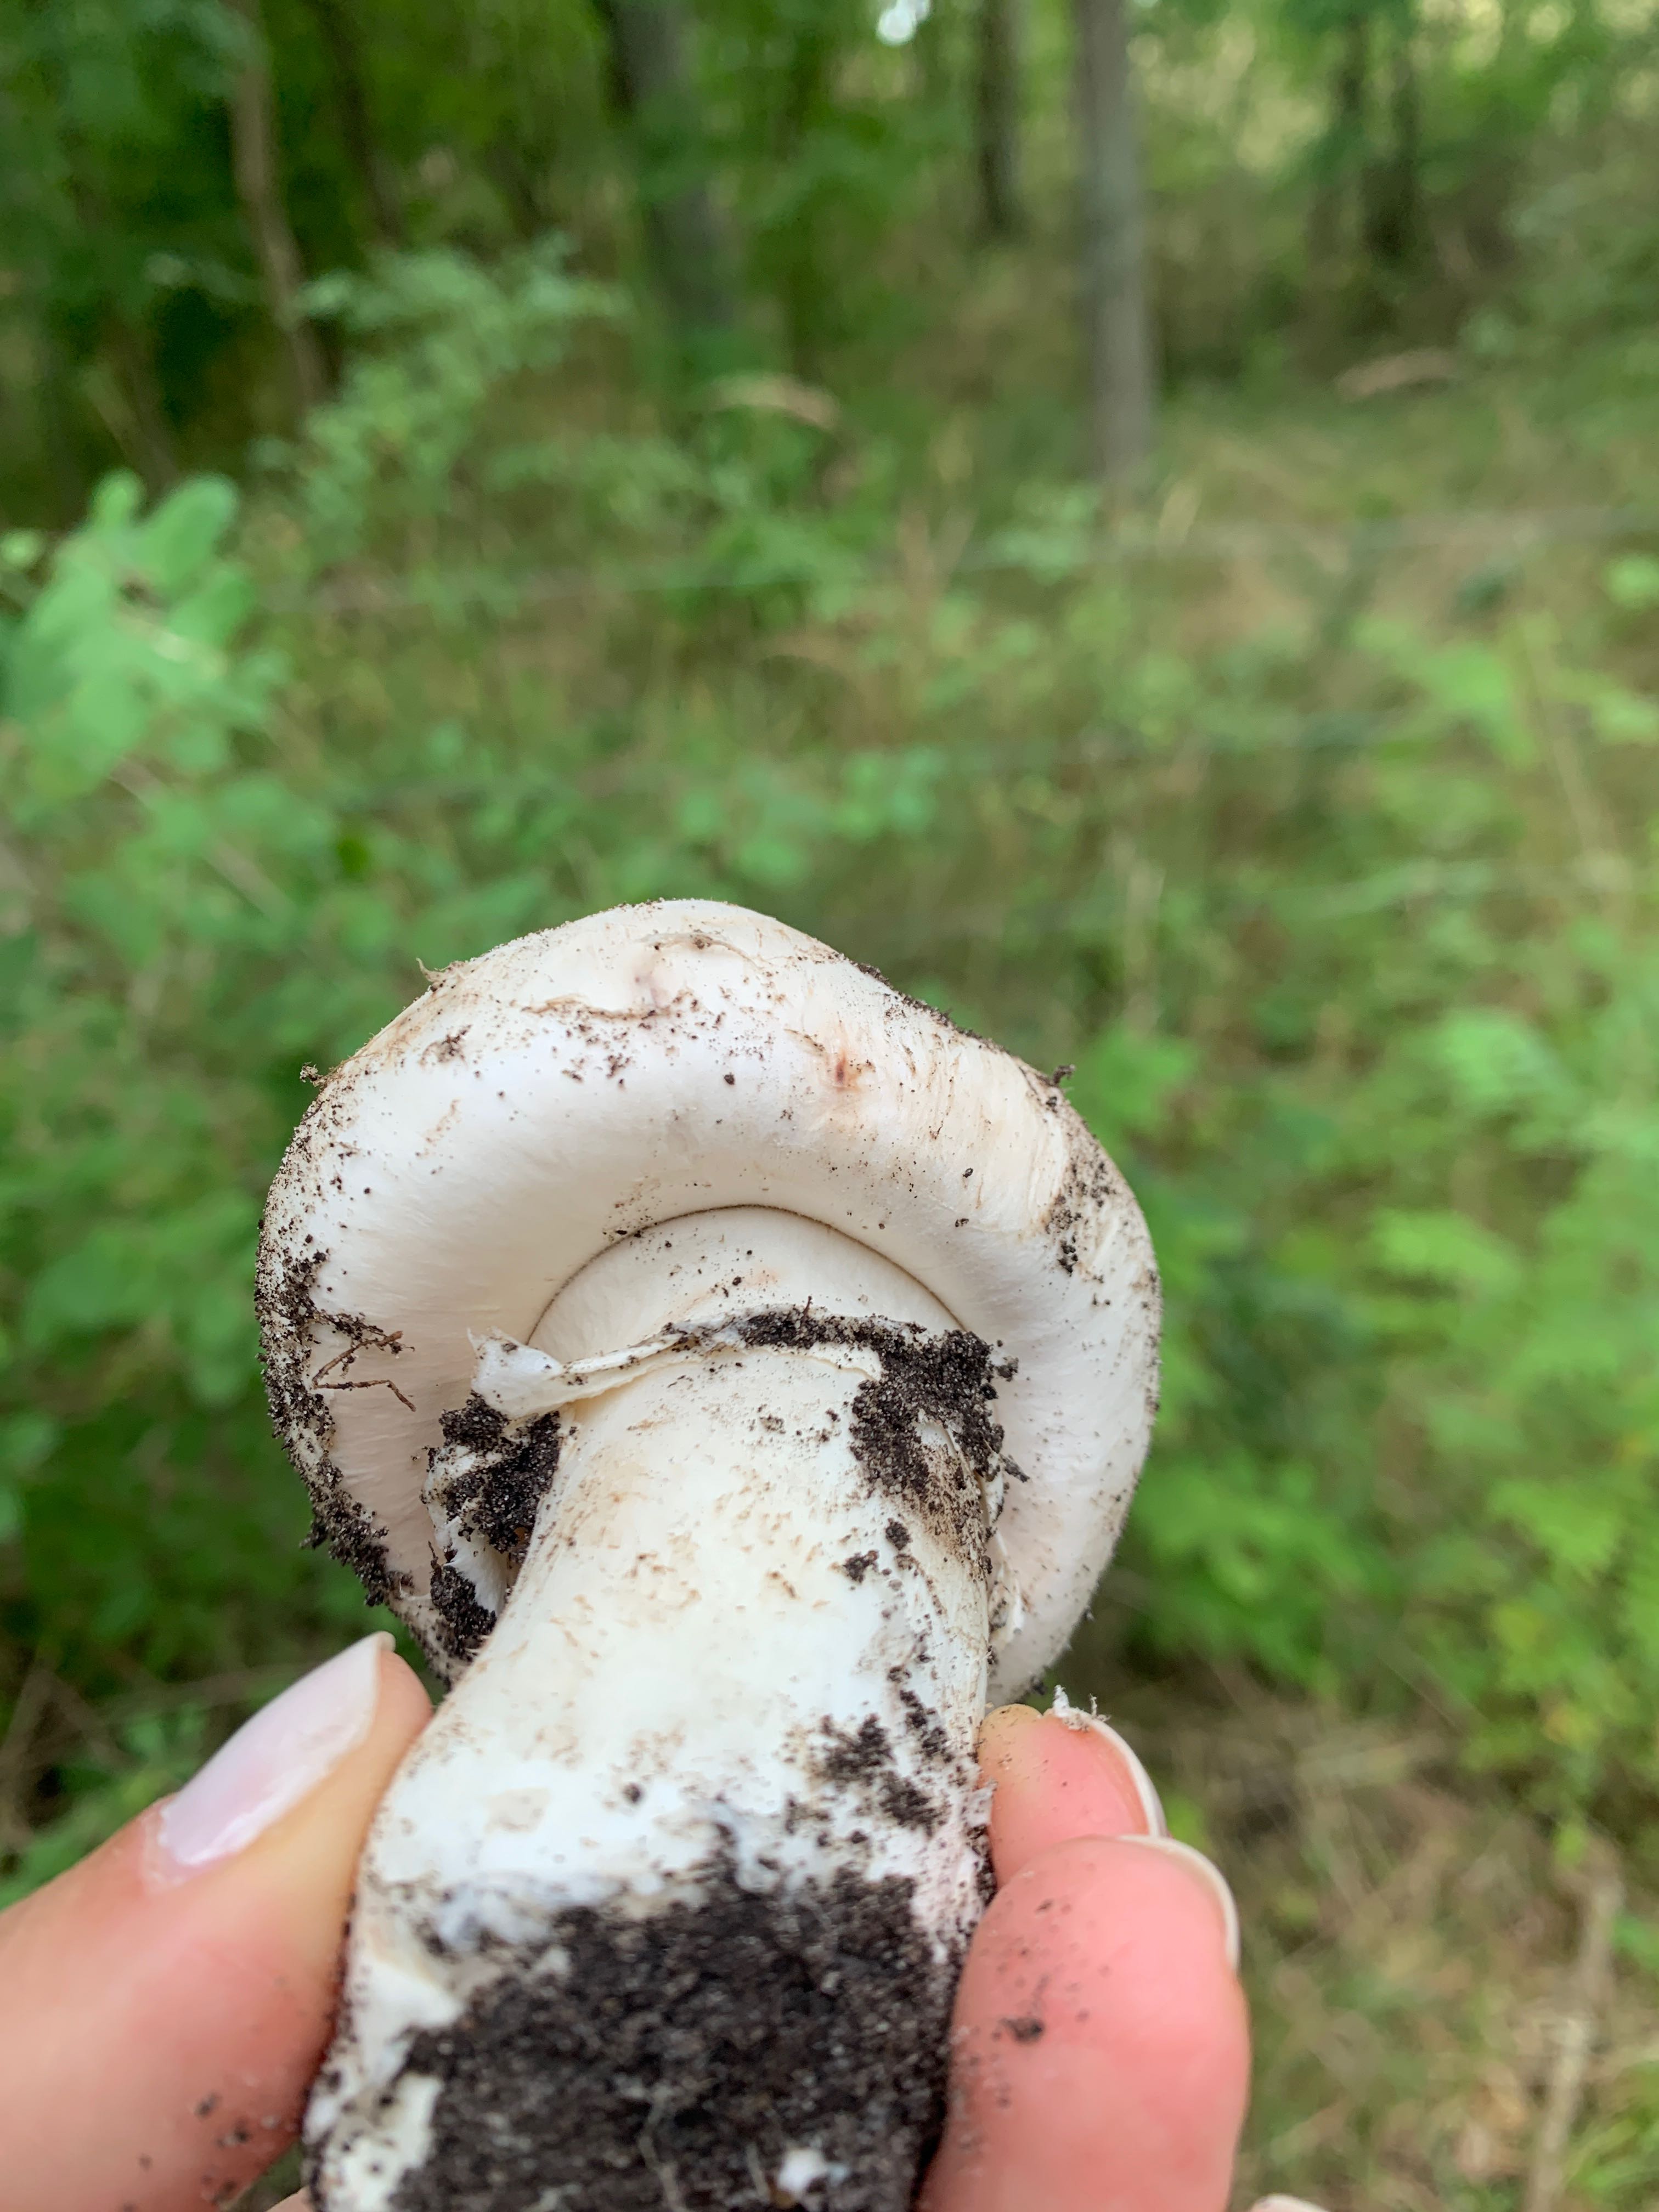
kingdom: Fungi
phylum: Basidiomycota
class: Agaricomycetes
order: Agaricales
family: Agaricaceae
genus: Agaricus
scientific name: Agaricus
